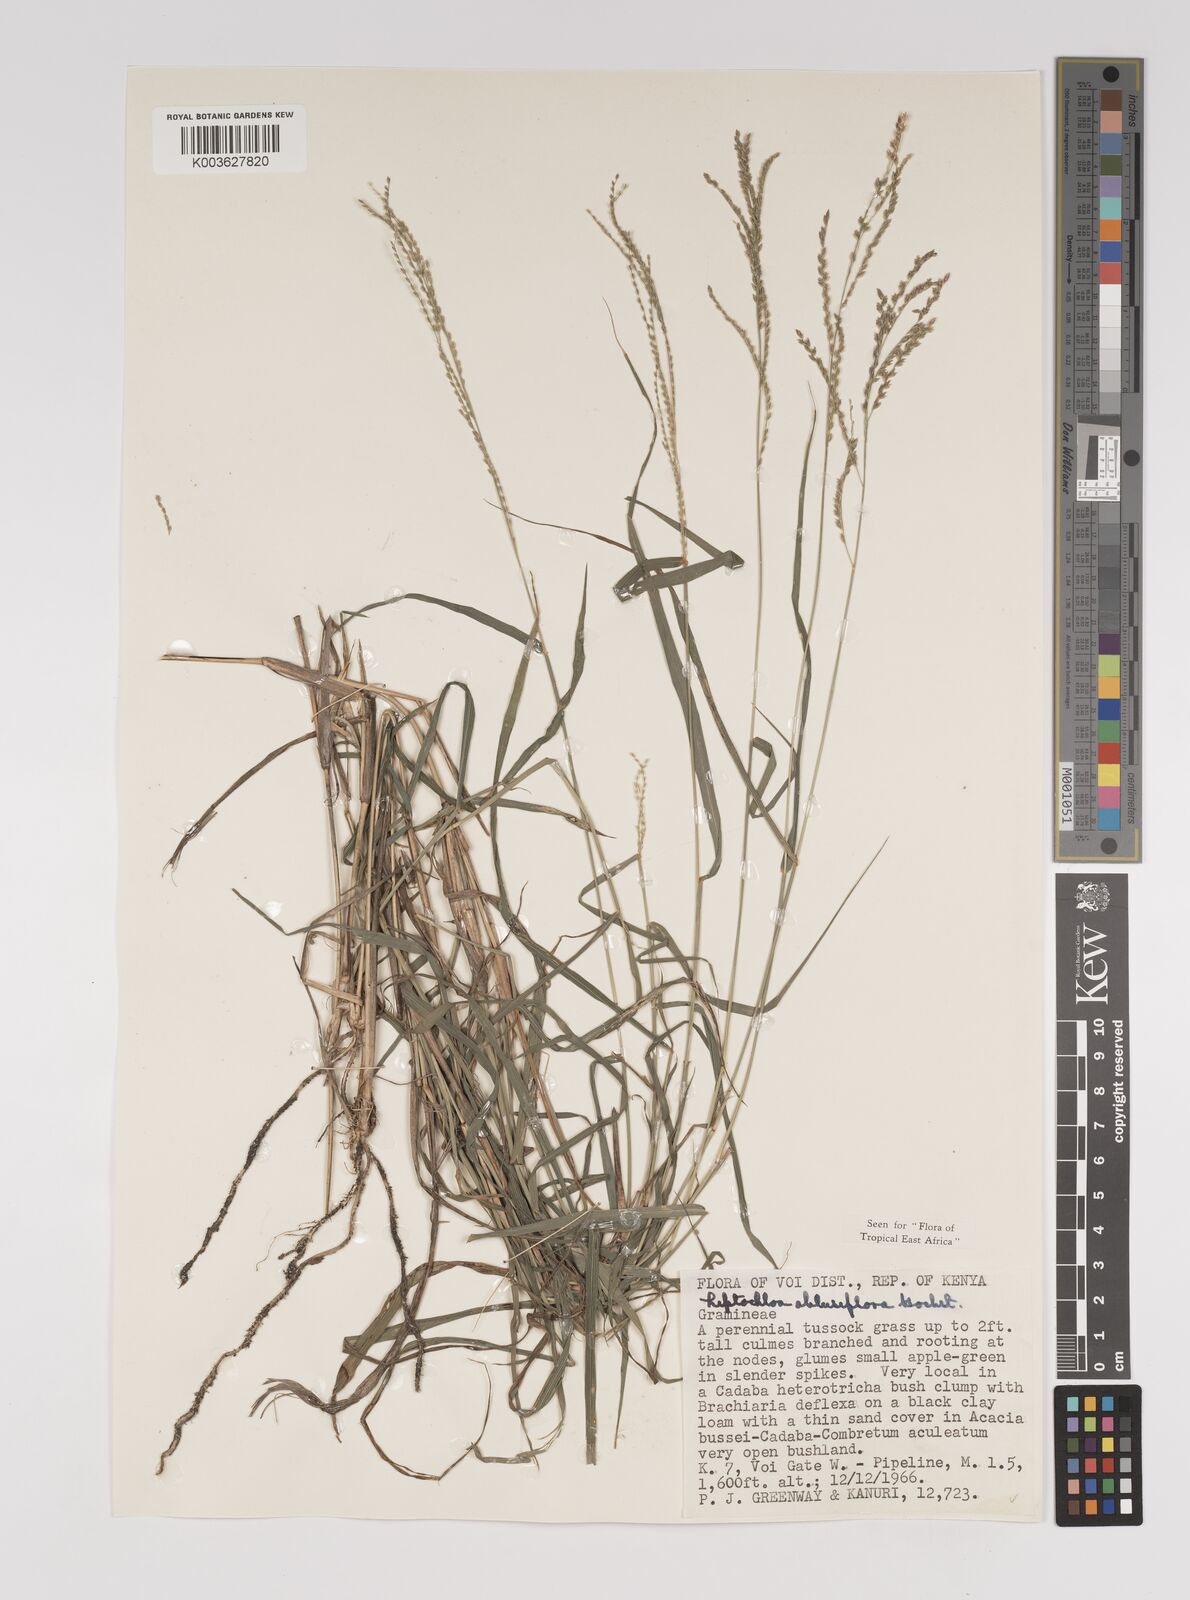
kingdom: Plantae
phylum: Tracheophyta
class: Liliopsida
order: Poales
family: Poaceae
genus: Disakisperma
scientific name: Disakisperma obtusiflorum
